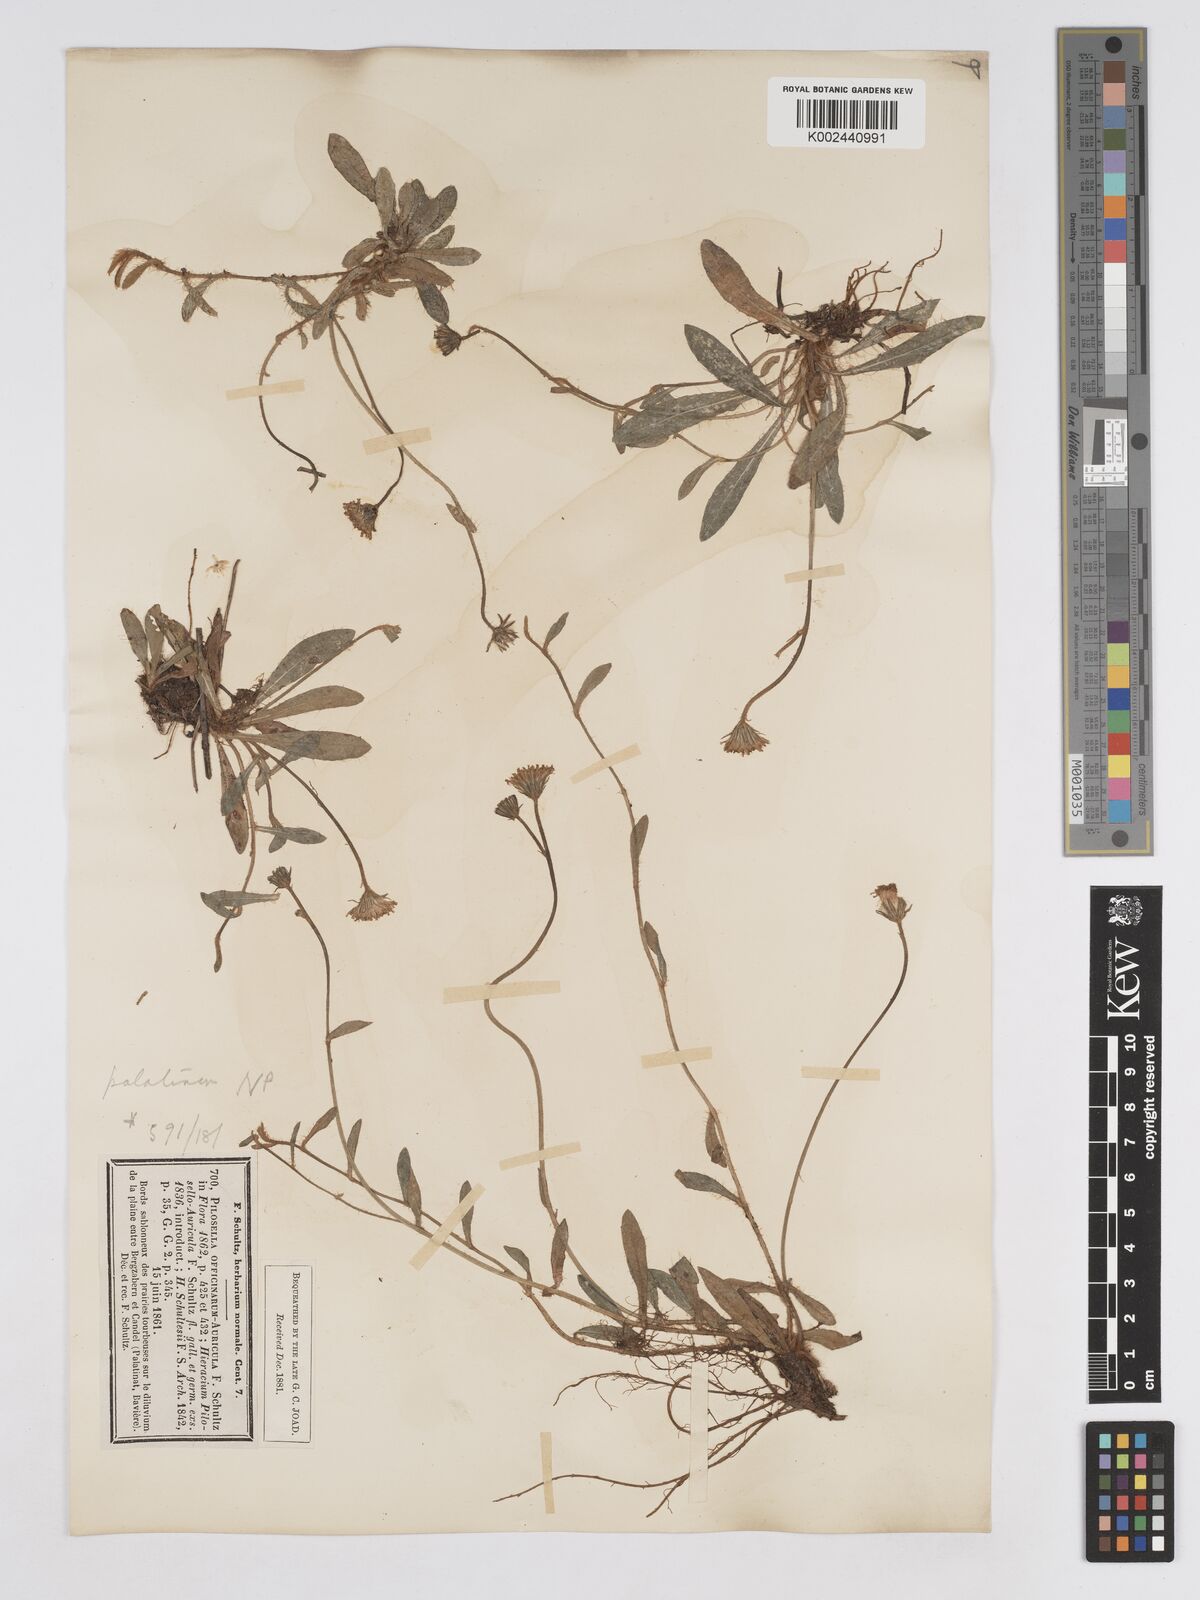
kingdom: Plantae
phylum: Tracheophyta
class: Magnoliopsida
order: Asterales
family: Asteraceae
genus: Pilosella
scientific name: Pilosella schultesii
